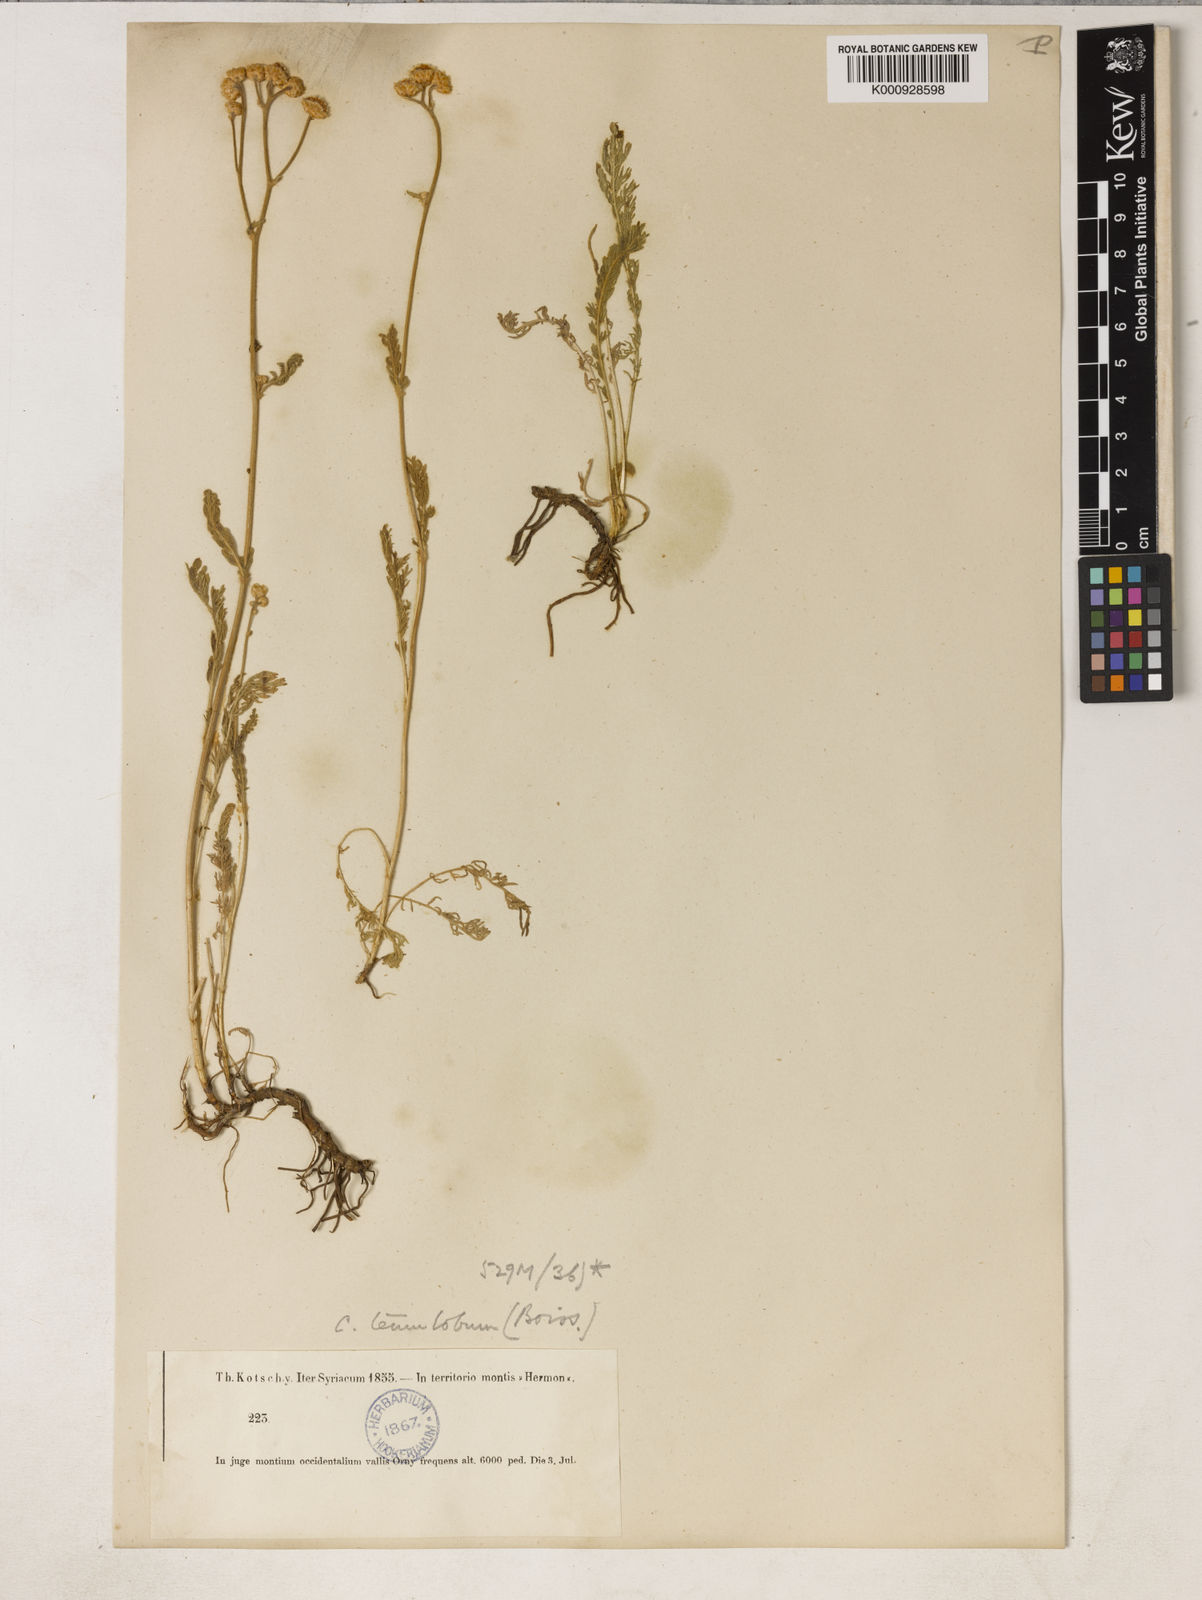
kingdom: Plantae
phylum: Tracheophyta
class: Magnoliopsida
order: Asterales
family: Asteraceae
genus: Tanacetum
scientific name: Tanacetum aucheri
